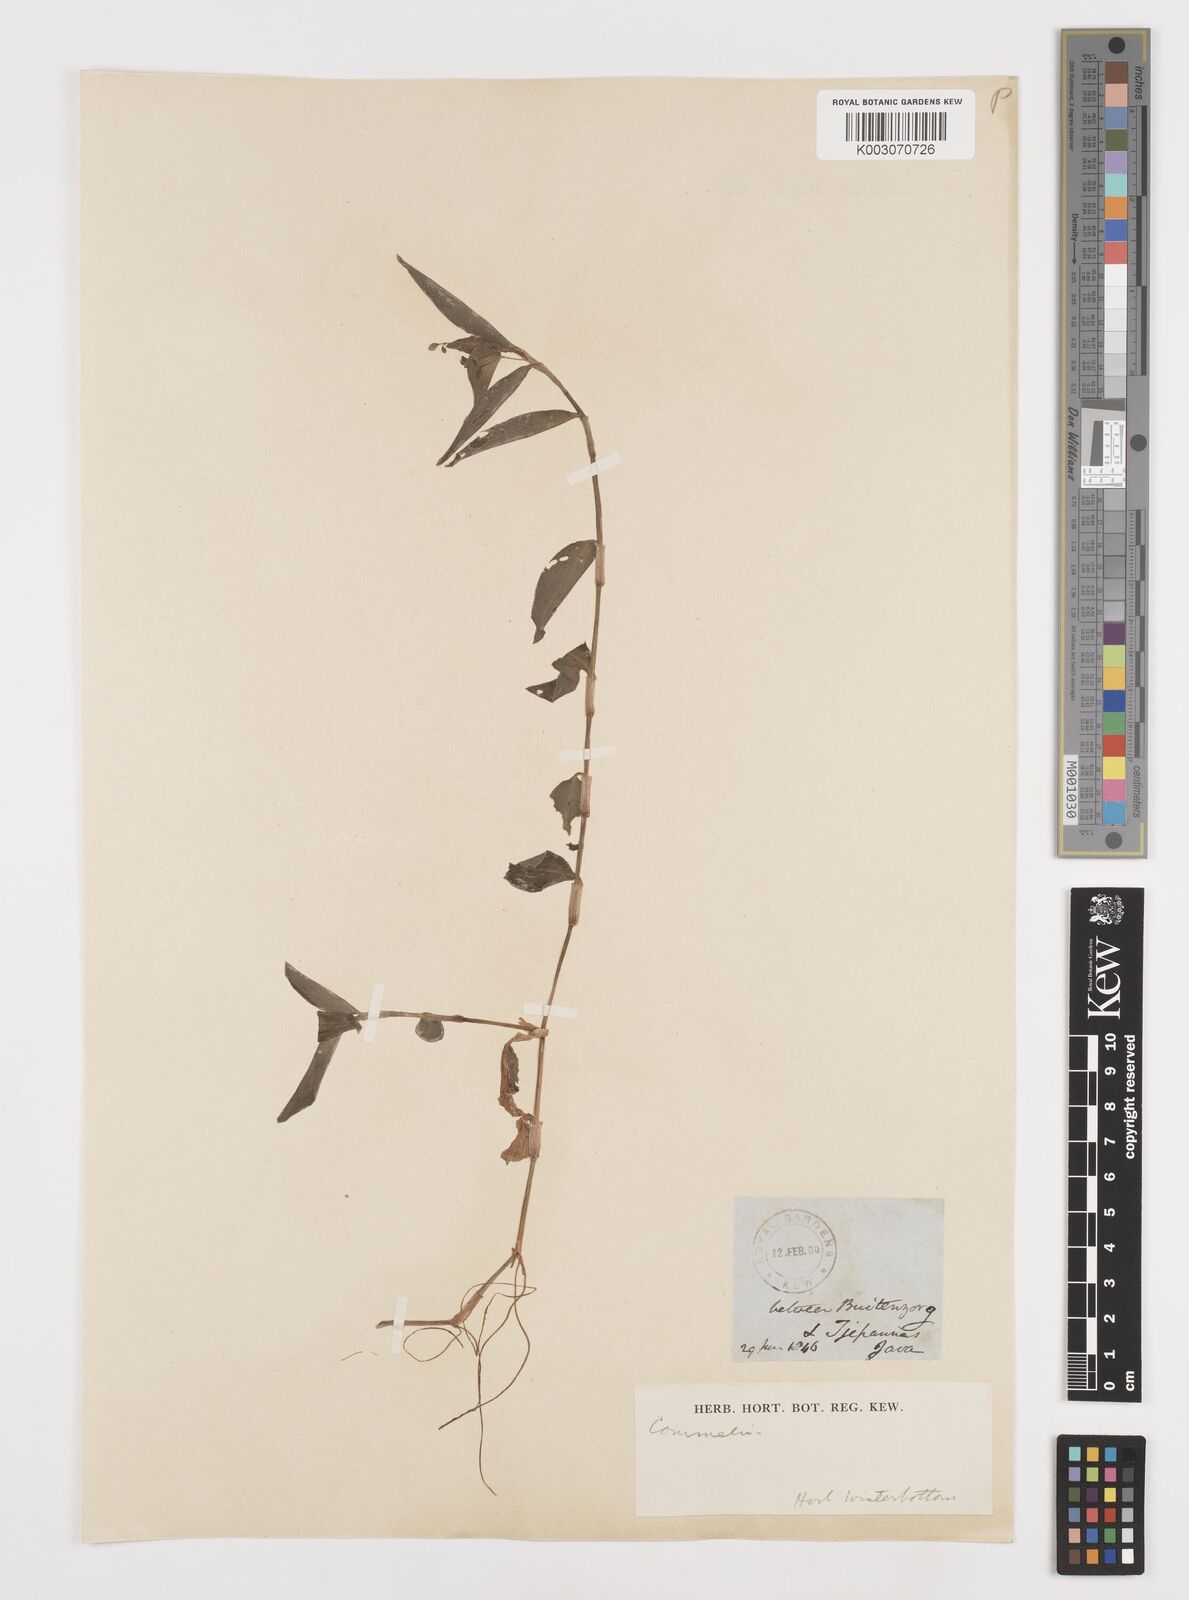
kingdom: Plantae
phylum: Tracheophyta
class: Liliopsida
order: Commelinales
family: Commelinaceae
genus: Commelina
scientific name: Commelina clavata
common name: Willow leaved dayflower
